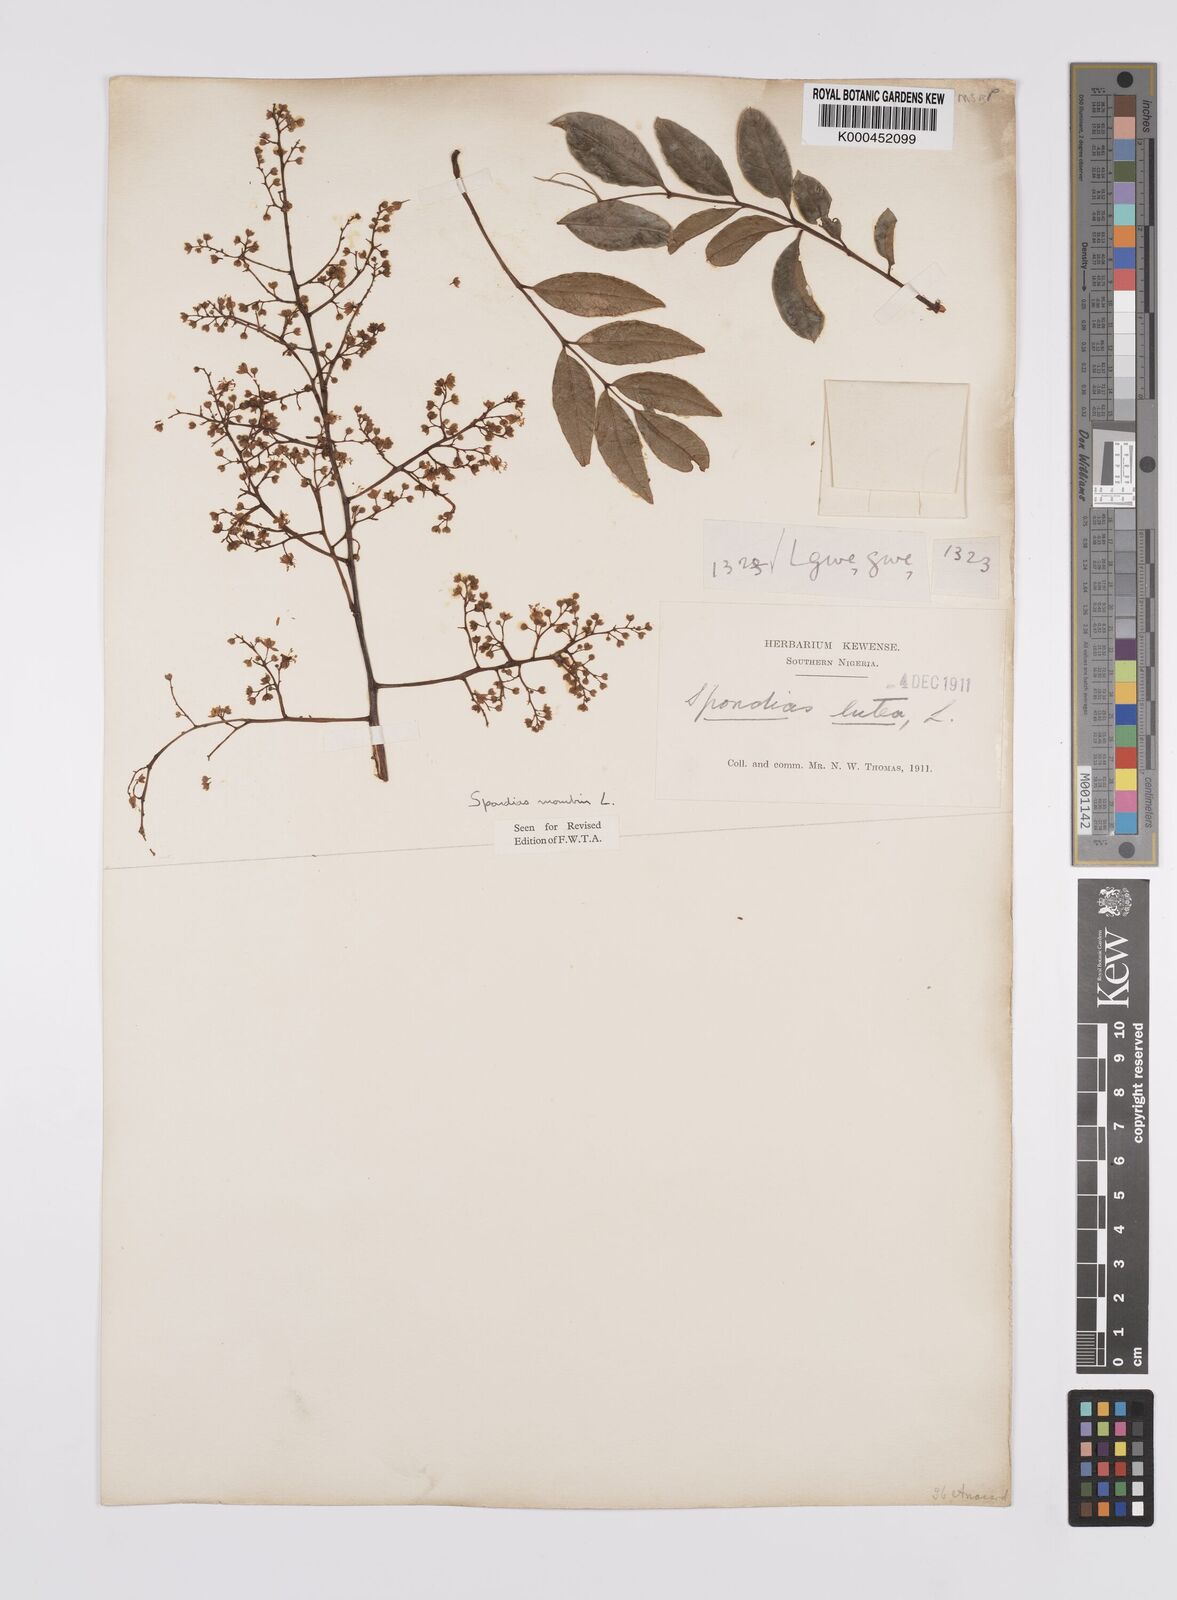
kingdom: Plantae
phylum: Tracheophyta
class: Magnoliopsida
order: Sapindales
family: Anacardiaceae
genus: Spondias
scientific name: Spondias mombin
